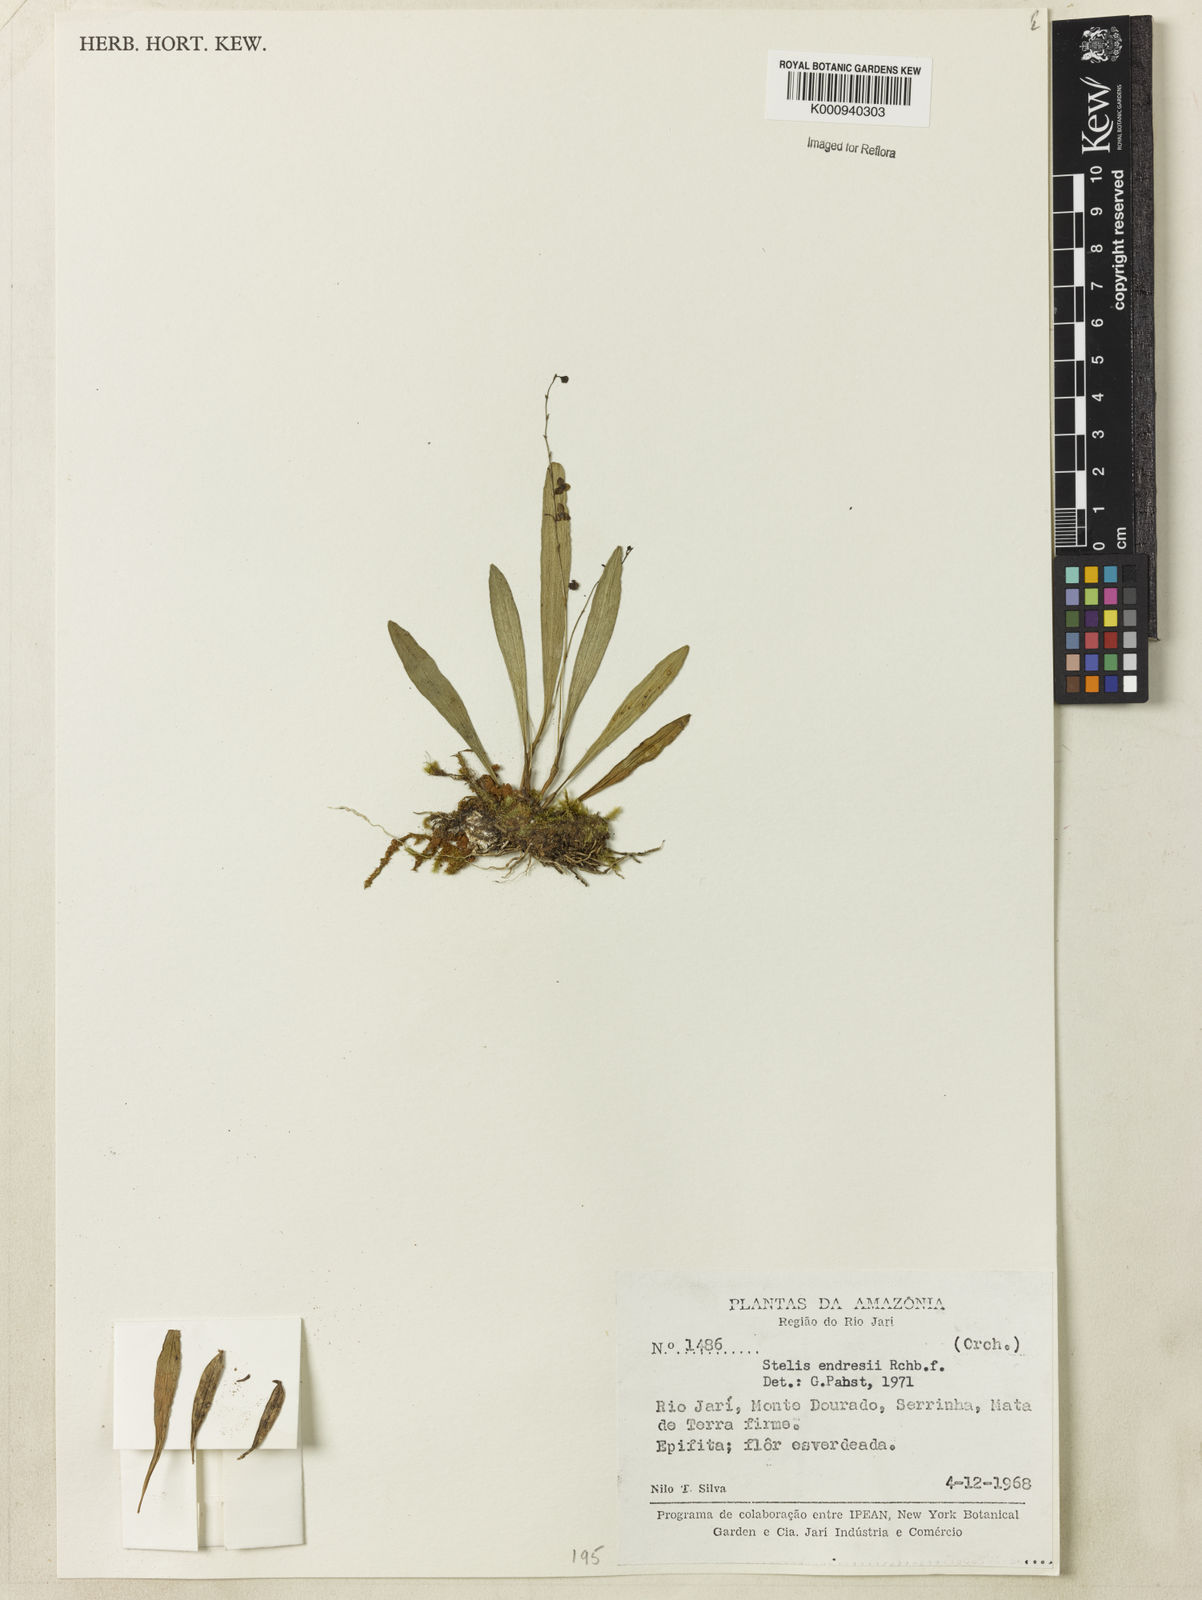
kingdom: Plantae
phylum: Tracheophyta
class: Liliopsida
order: Asparagales
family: Orchidaceae
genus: Stelis
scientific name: Stelis argentata
